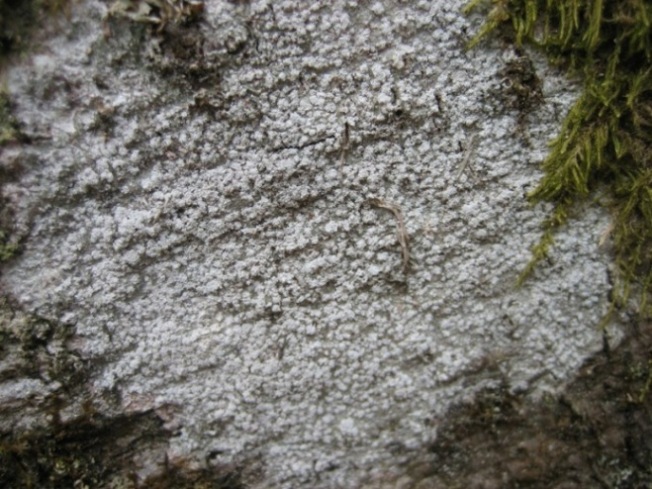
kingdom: Fungi
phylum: Ascomycota
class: Lecanoromycetes
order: Pertusariales
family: Pertusariaceae
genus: Lepra
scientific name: Lepra amara
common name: bitter prikvortelav
